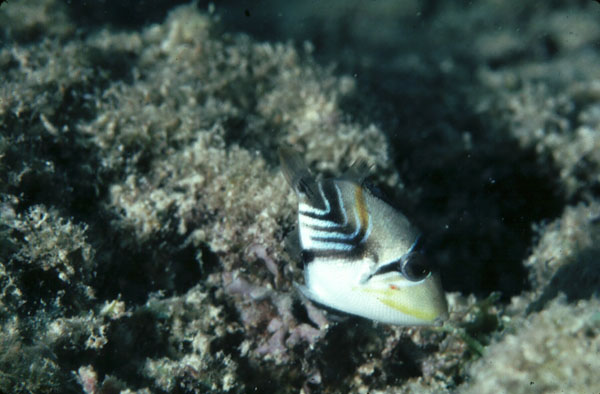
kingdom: Animalia
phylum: Chordata
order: Tetraodontiformes
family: Balistidae
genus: Rhinecanthus
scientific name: Rhinecanthus aculeatus
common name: White-banded triggerfish
